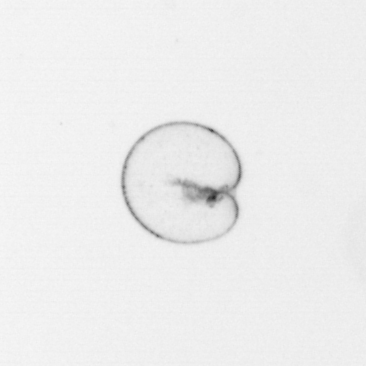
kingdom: Chromista
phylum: Myzozoa
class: Dinophyceae
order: Noctilucales
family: Noctilucaceae
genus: Noctiluca
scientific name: Noctiluca scintillans
